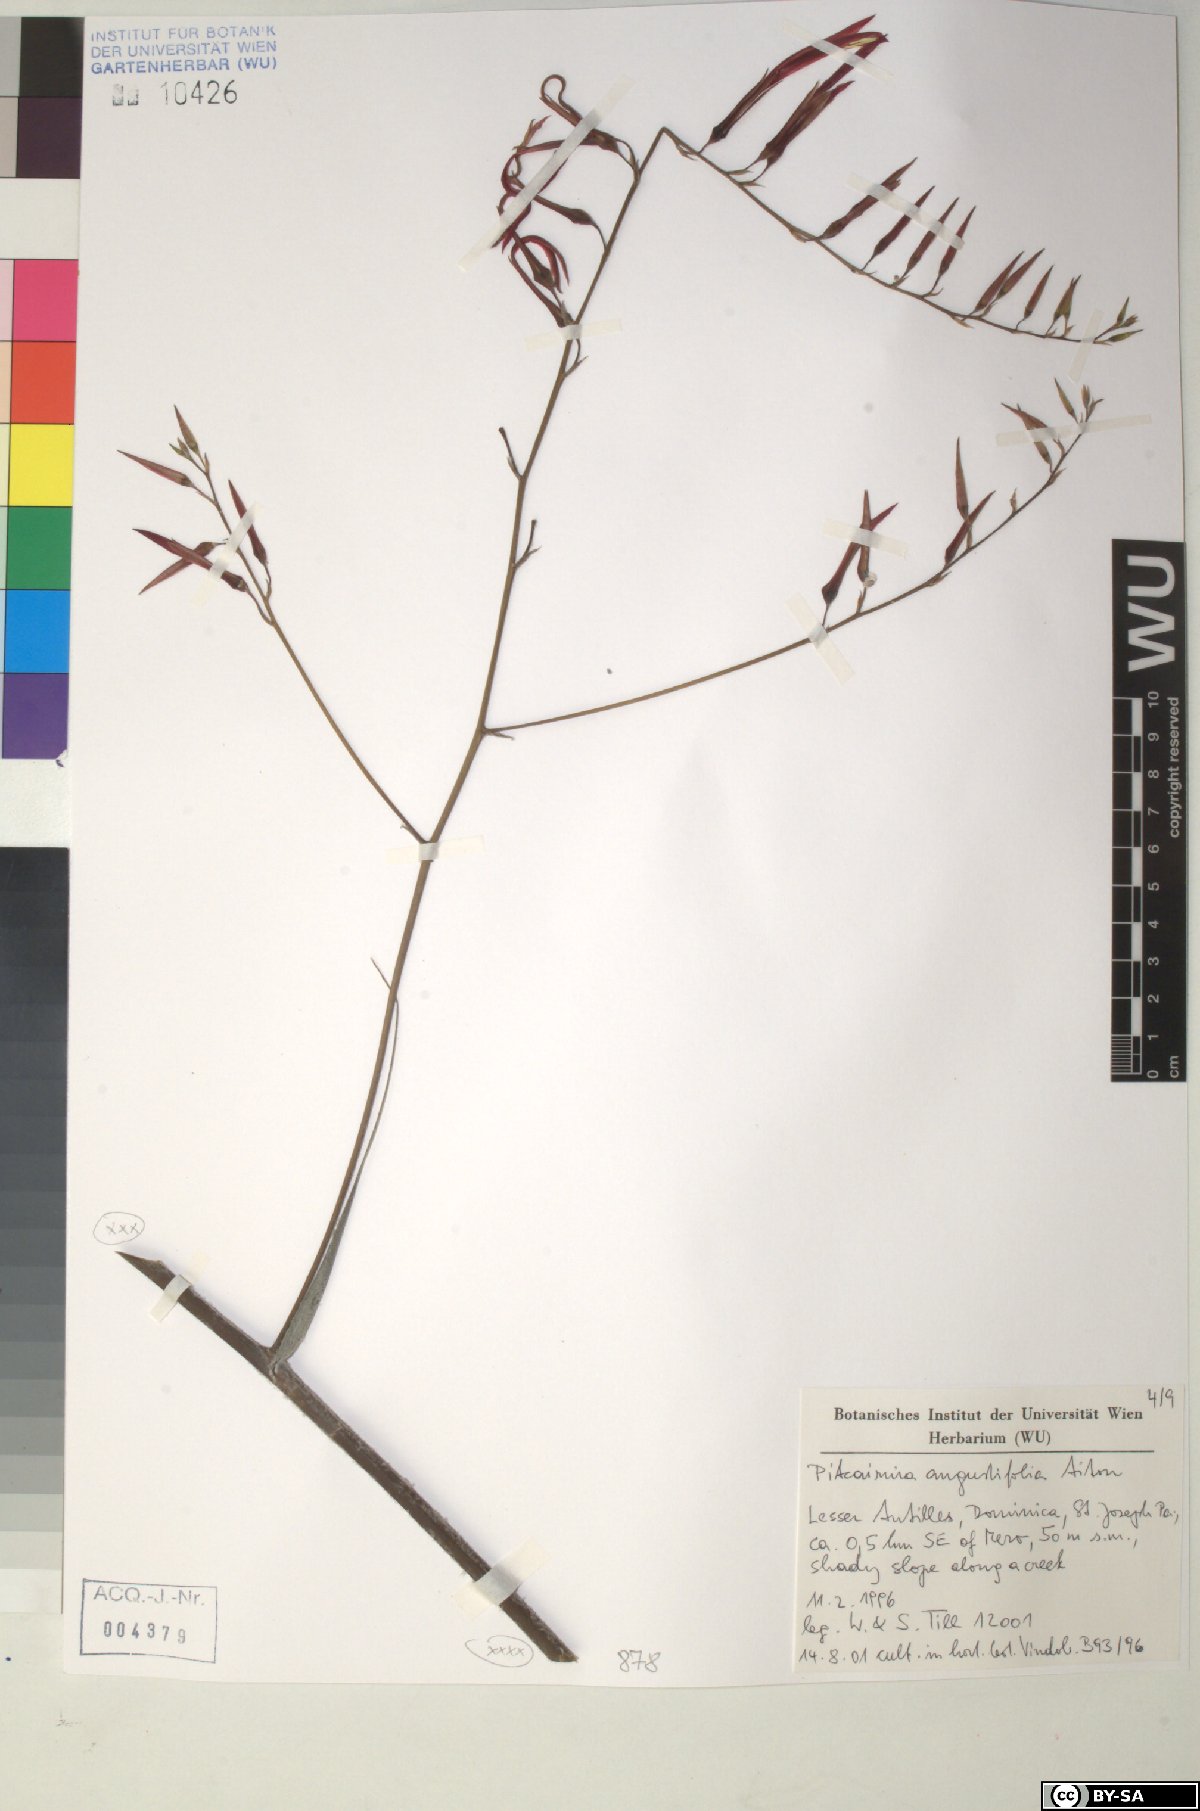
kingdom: Plantae
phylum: Tracheophyta
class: Liliopsida
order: Poales
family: Bromeliaceae
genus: Pitcairnia
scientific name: Pitcairnia angustifolia
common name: Clapper
